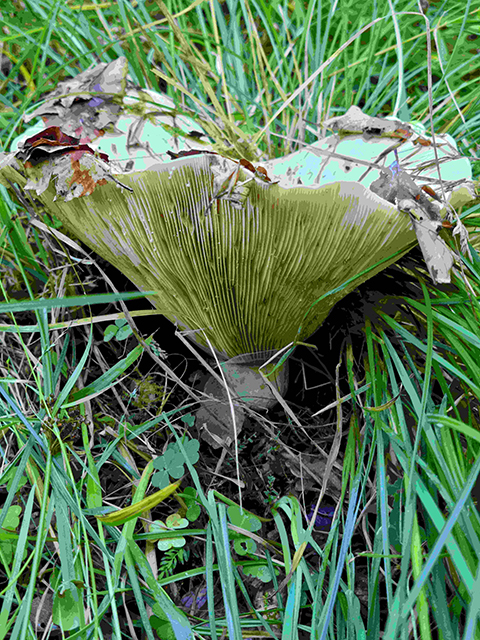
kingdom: Fungi
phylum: Basidiomycota
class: Agaricomycetes
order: Russulales
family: Russulaceae
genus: Lactifluus
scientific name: Lactifluus
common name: mælkehat
